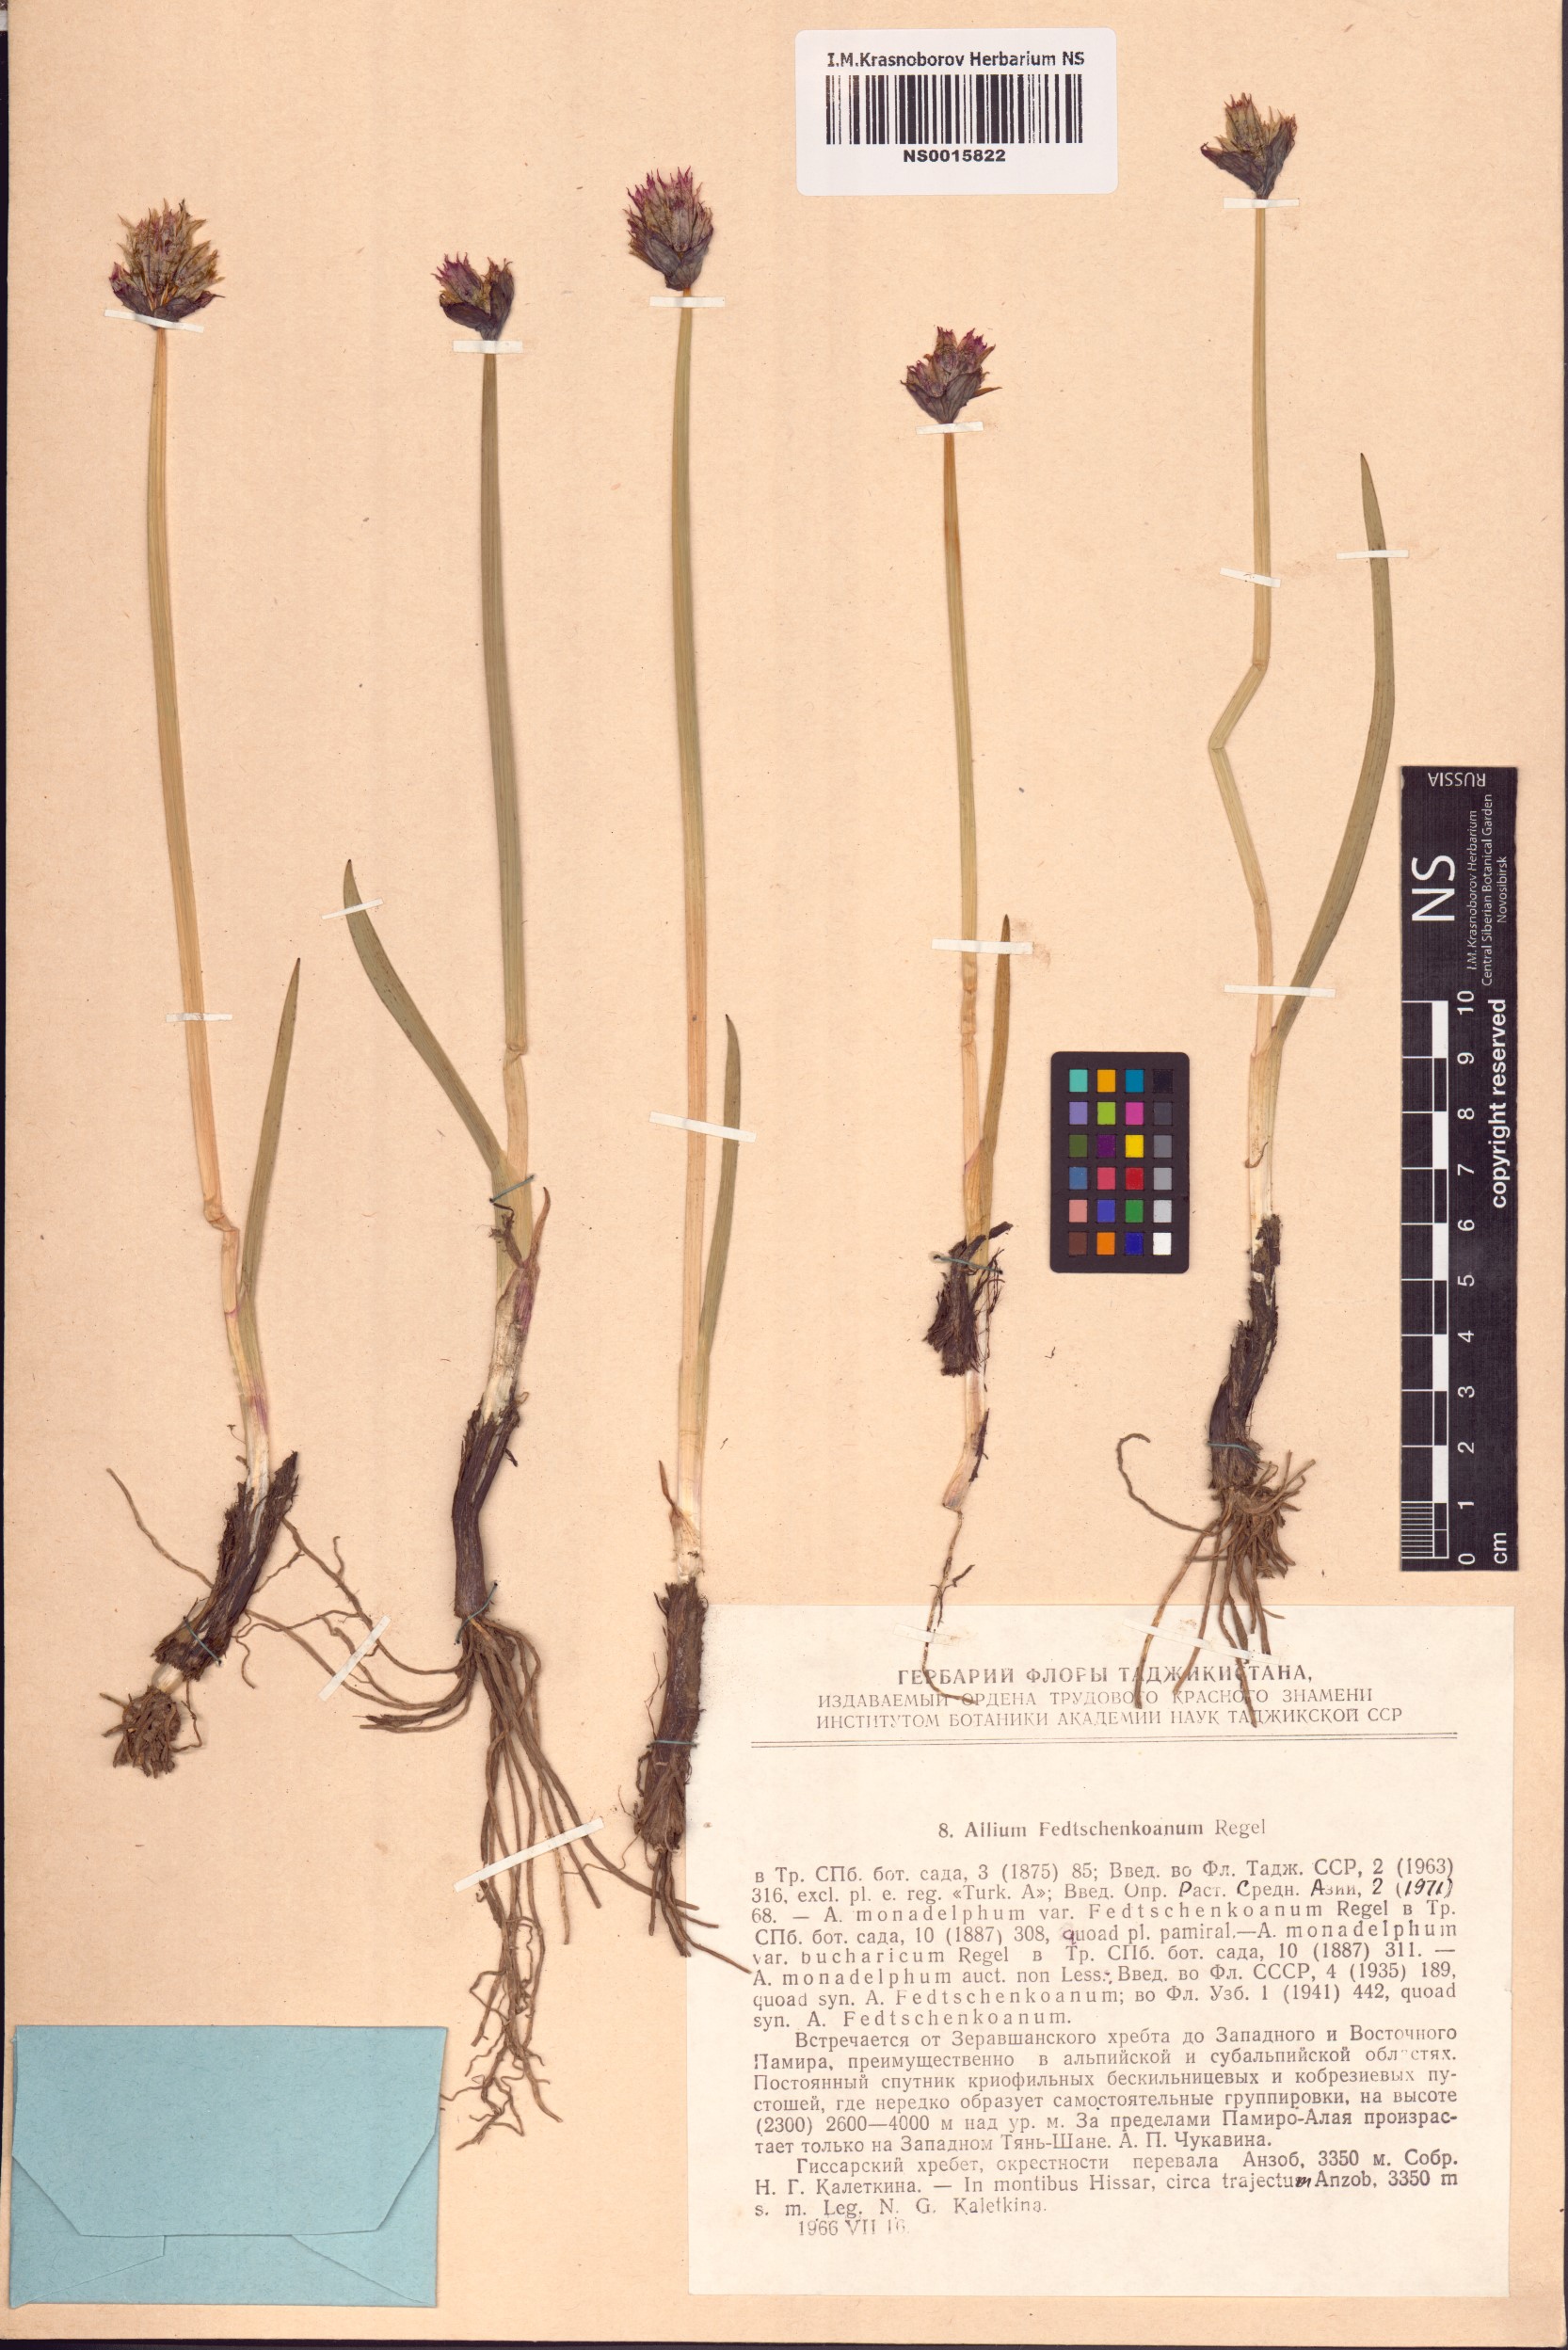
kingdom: Plantae
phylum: Tracheophyta
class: Liliopsida
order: Asparagales
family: Amaryllidaceae
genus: Allium
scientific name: Allium atrosanguineum
